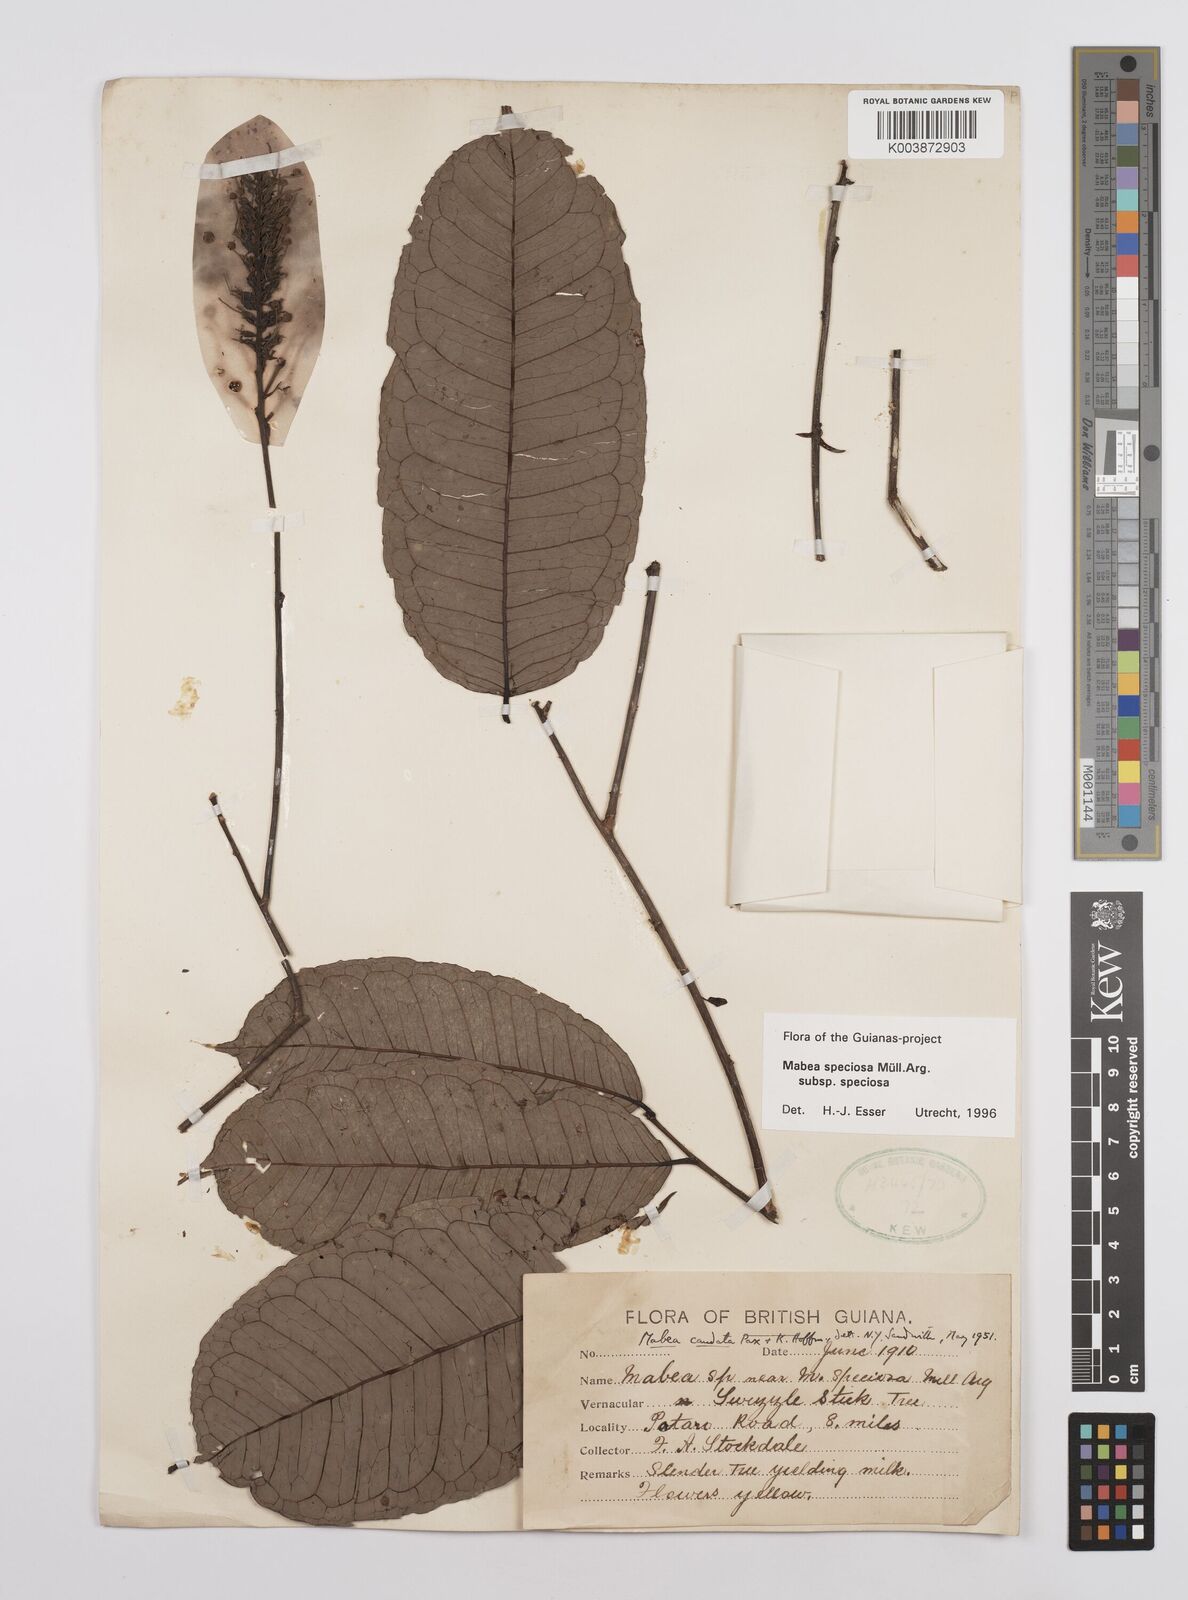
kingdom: Plantae
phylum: Tracheophyta
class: Magnoliopsida
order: Malpighiales
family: Euphorbiaceae
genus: Mabea
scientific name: Mabea speciosa
